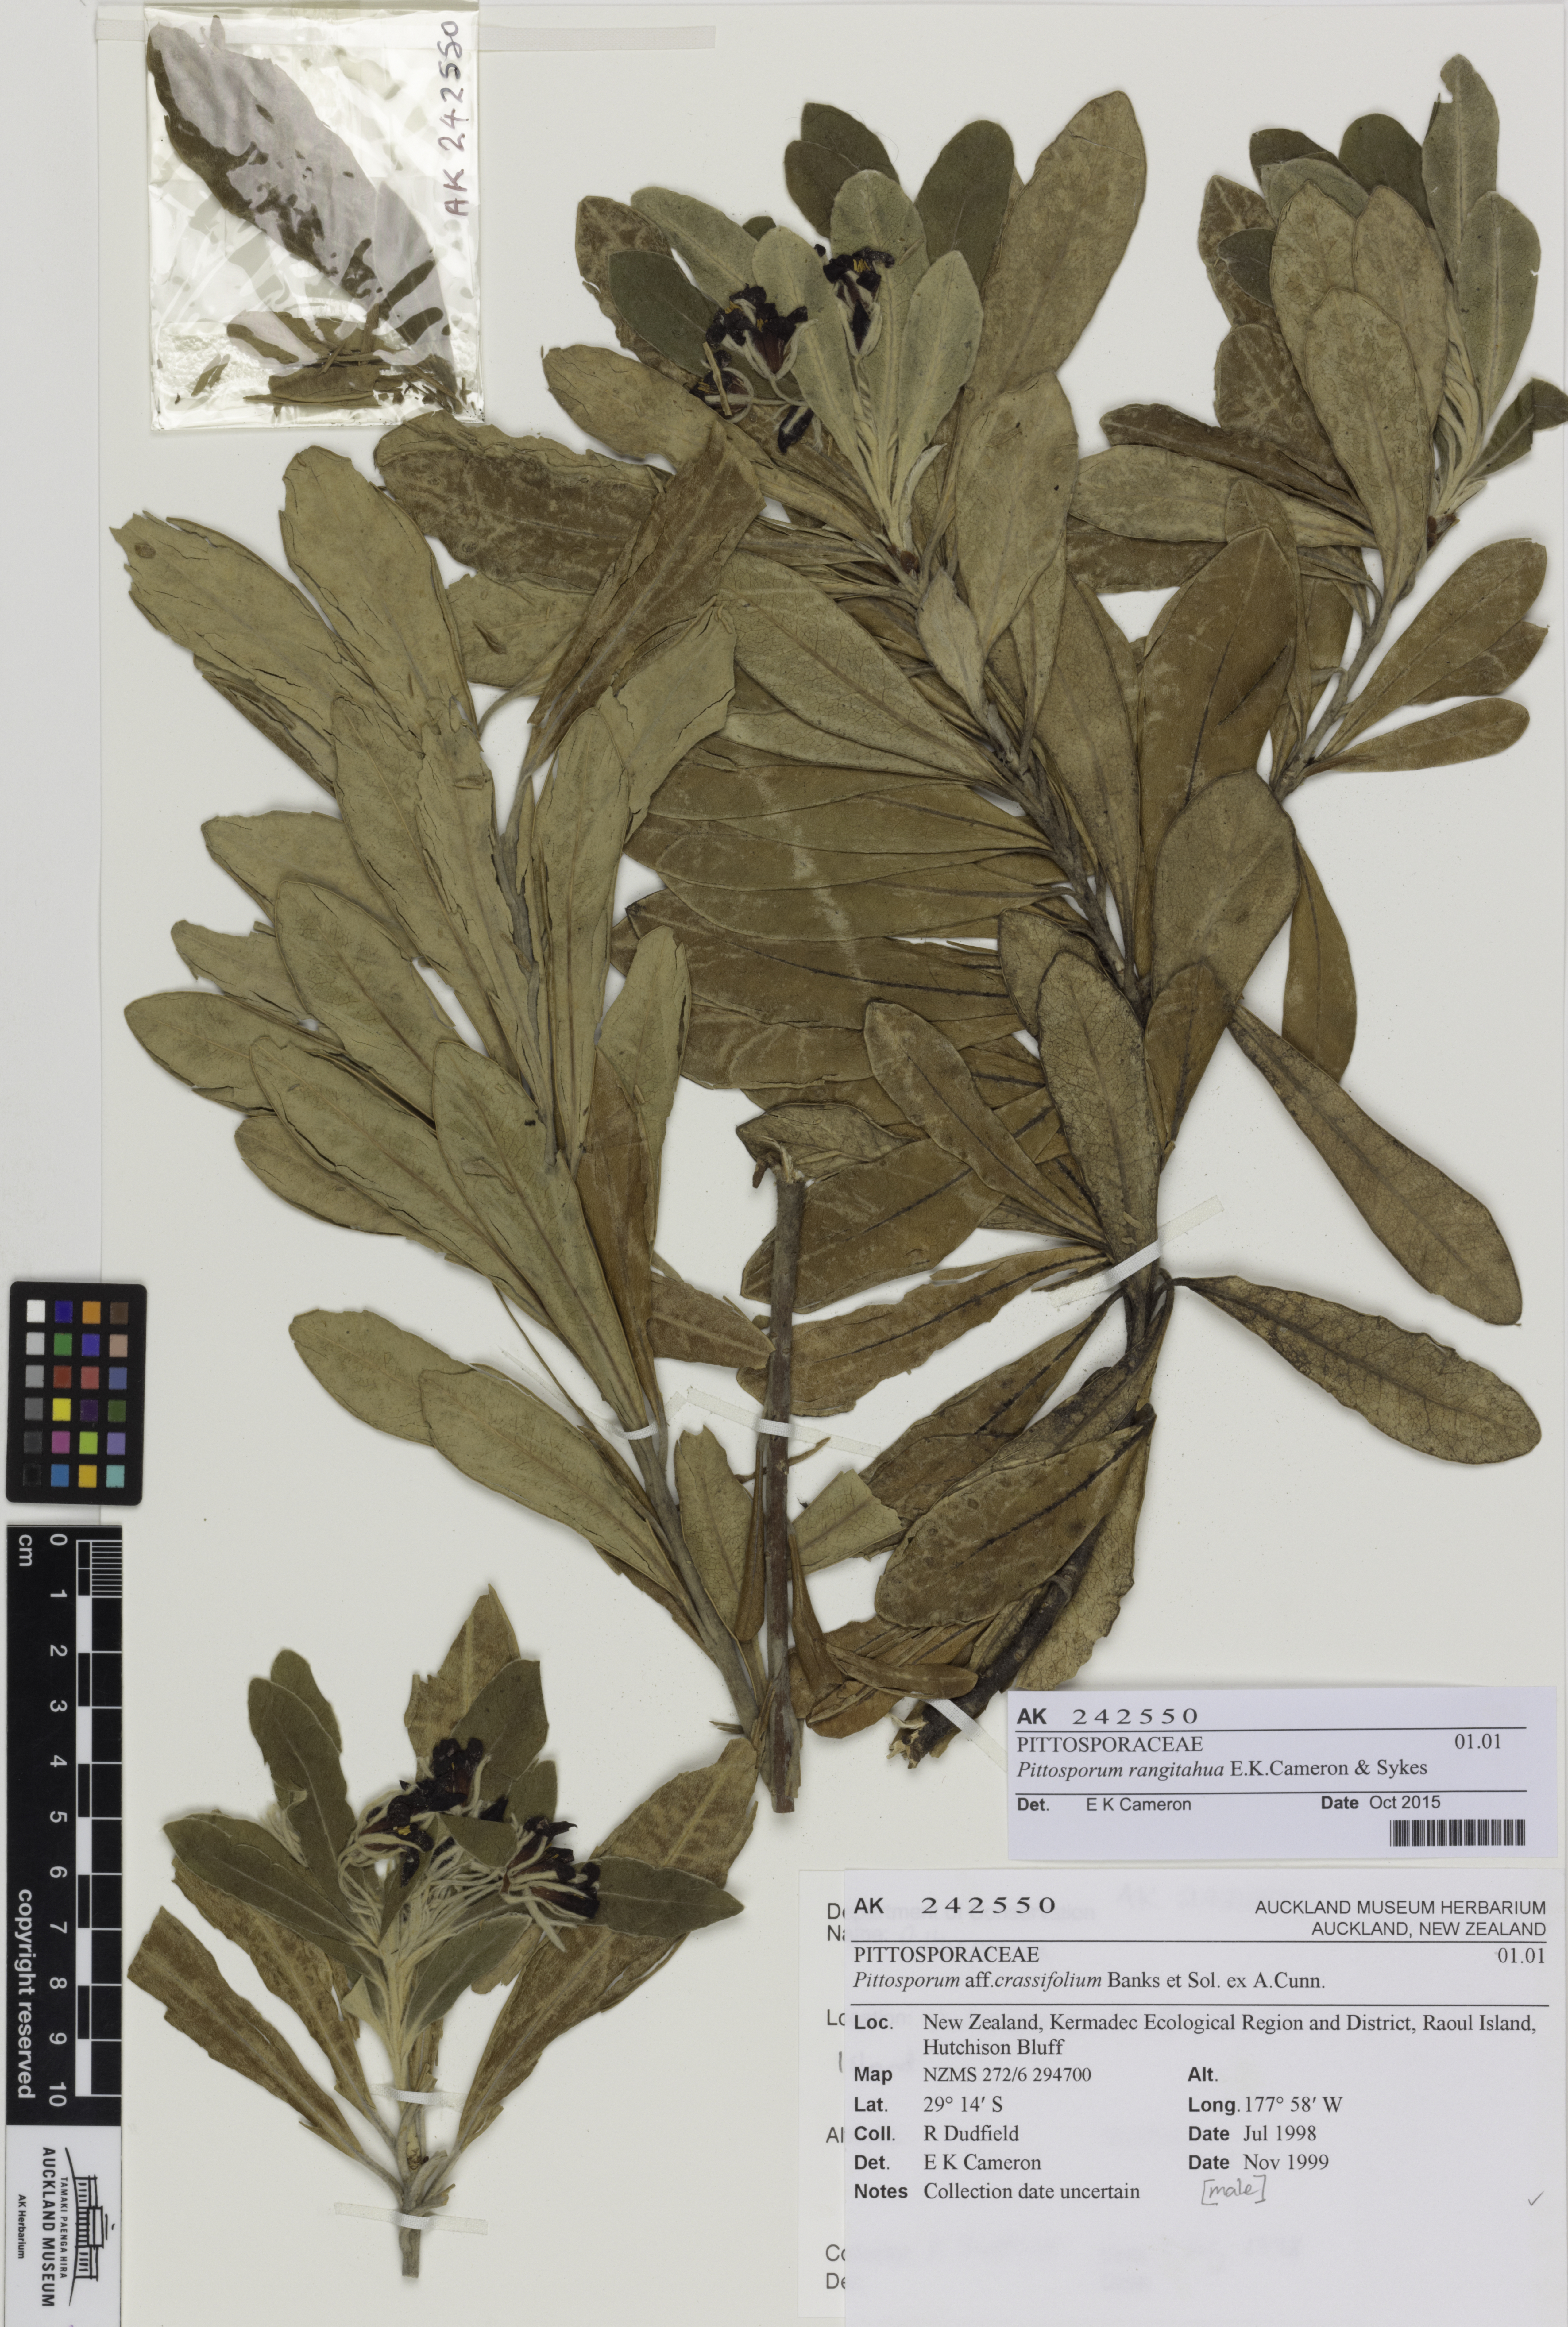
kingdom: Plantae
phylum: Tracheophyta
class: Magnoliopsida
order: Apiales
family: Pittosporaceae
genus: Pittosporum
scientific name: Pittosporum rangitahua
